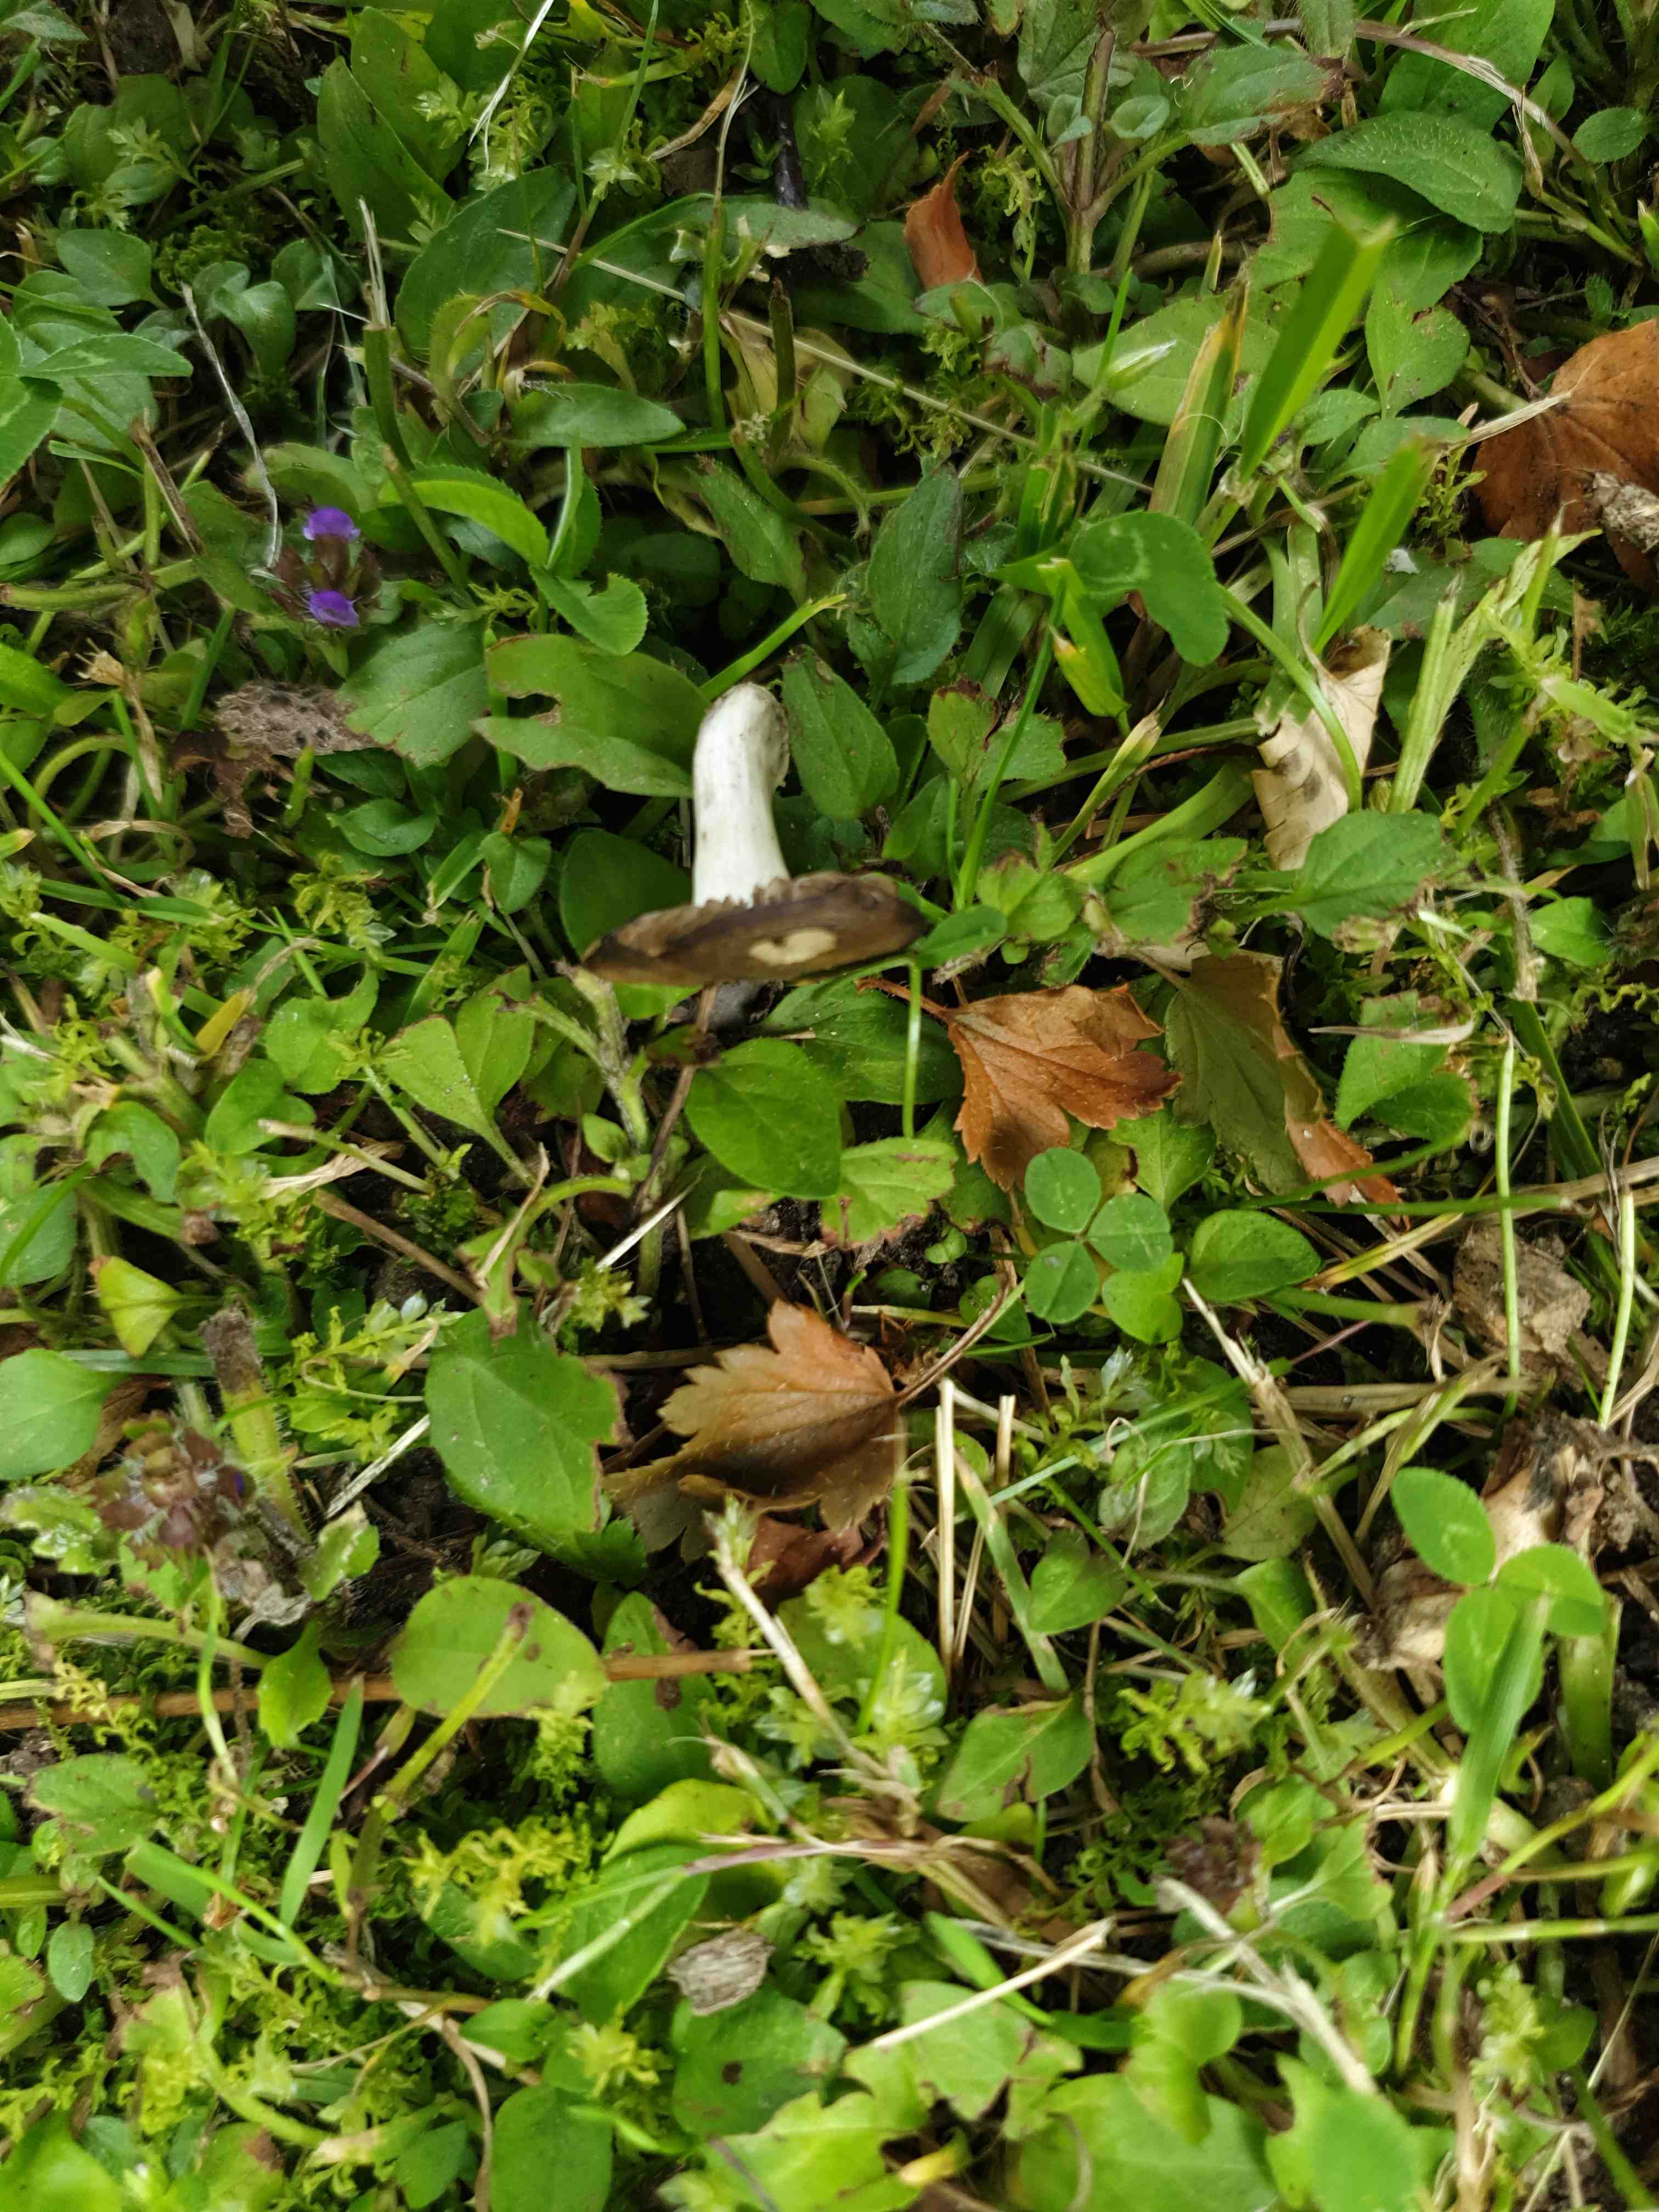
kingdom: Fungi
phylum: Basidiomycota
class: Agaricomycetes
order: Agaricales
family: Lyophyllaceae
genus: Lyophyllum
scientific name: Lyophyllum paelochroum
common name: blånende gråblad
